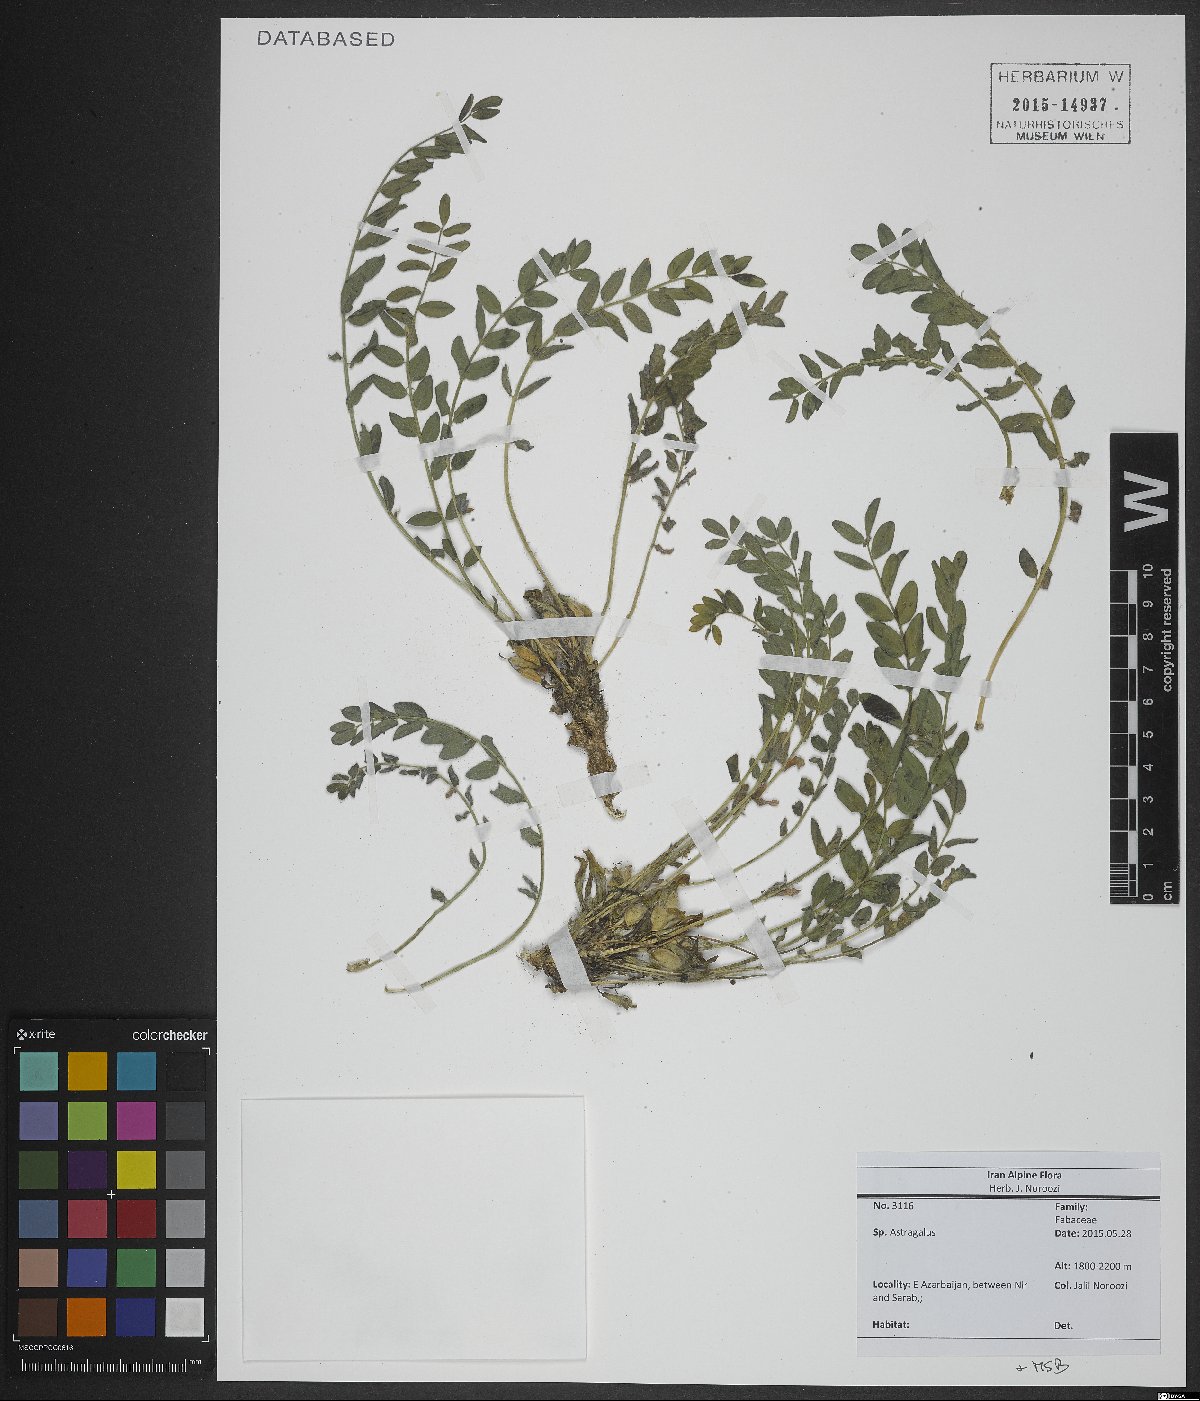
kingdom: Plantae
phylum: Tracheophyta
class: Magnoliopsida
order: Fabales
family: Fabaceae
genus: Astragalus
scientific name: Astragalus
